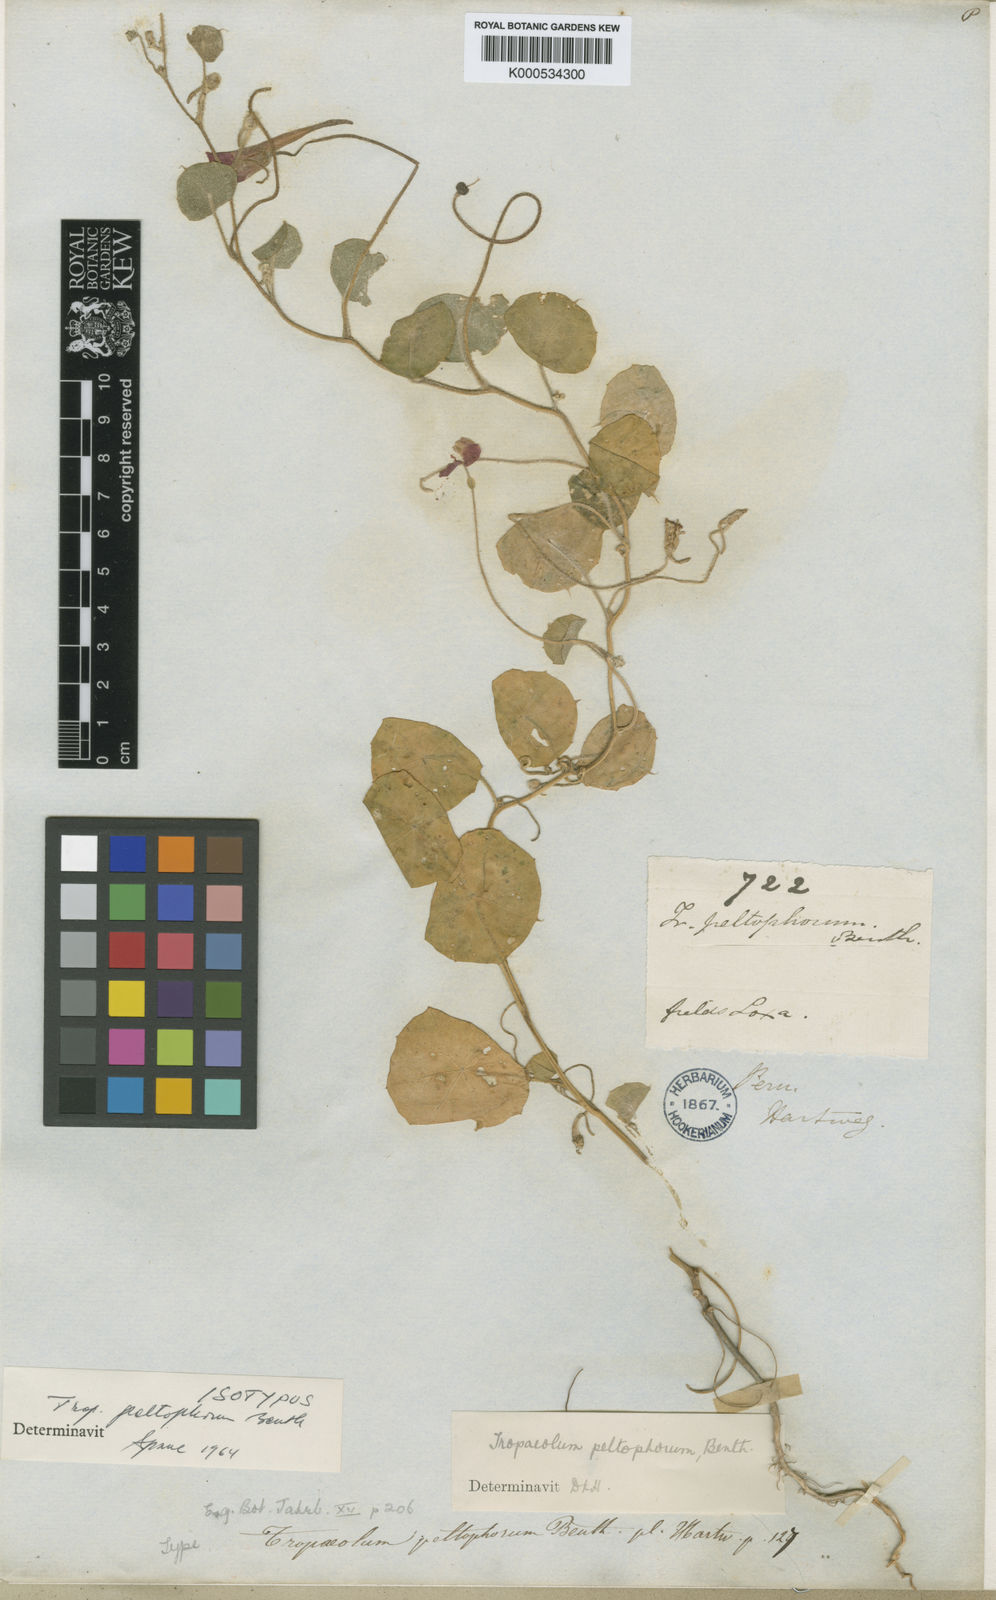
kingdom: Plantae
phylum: Tracheophyta
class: Magnoliopsida
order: Brassicales
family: Tropaeolaceae
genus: Tropaeolum
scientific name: Tropaeolum peltophorum
